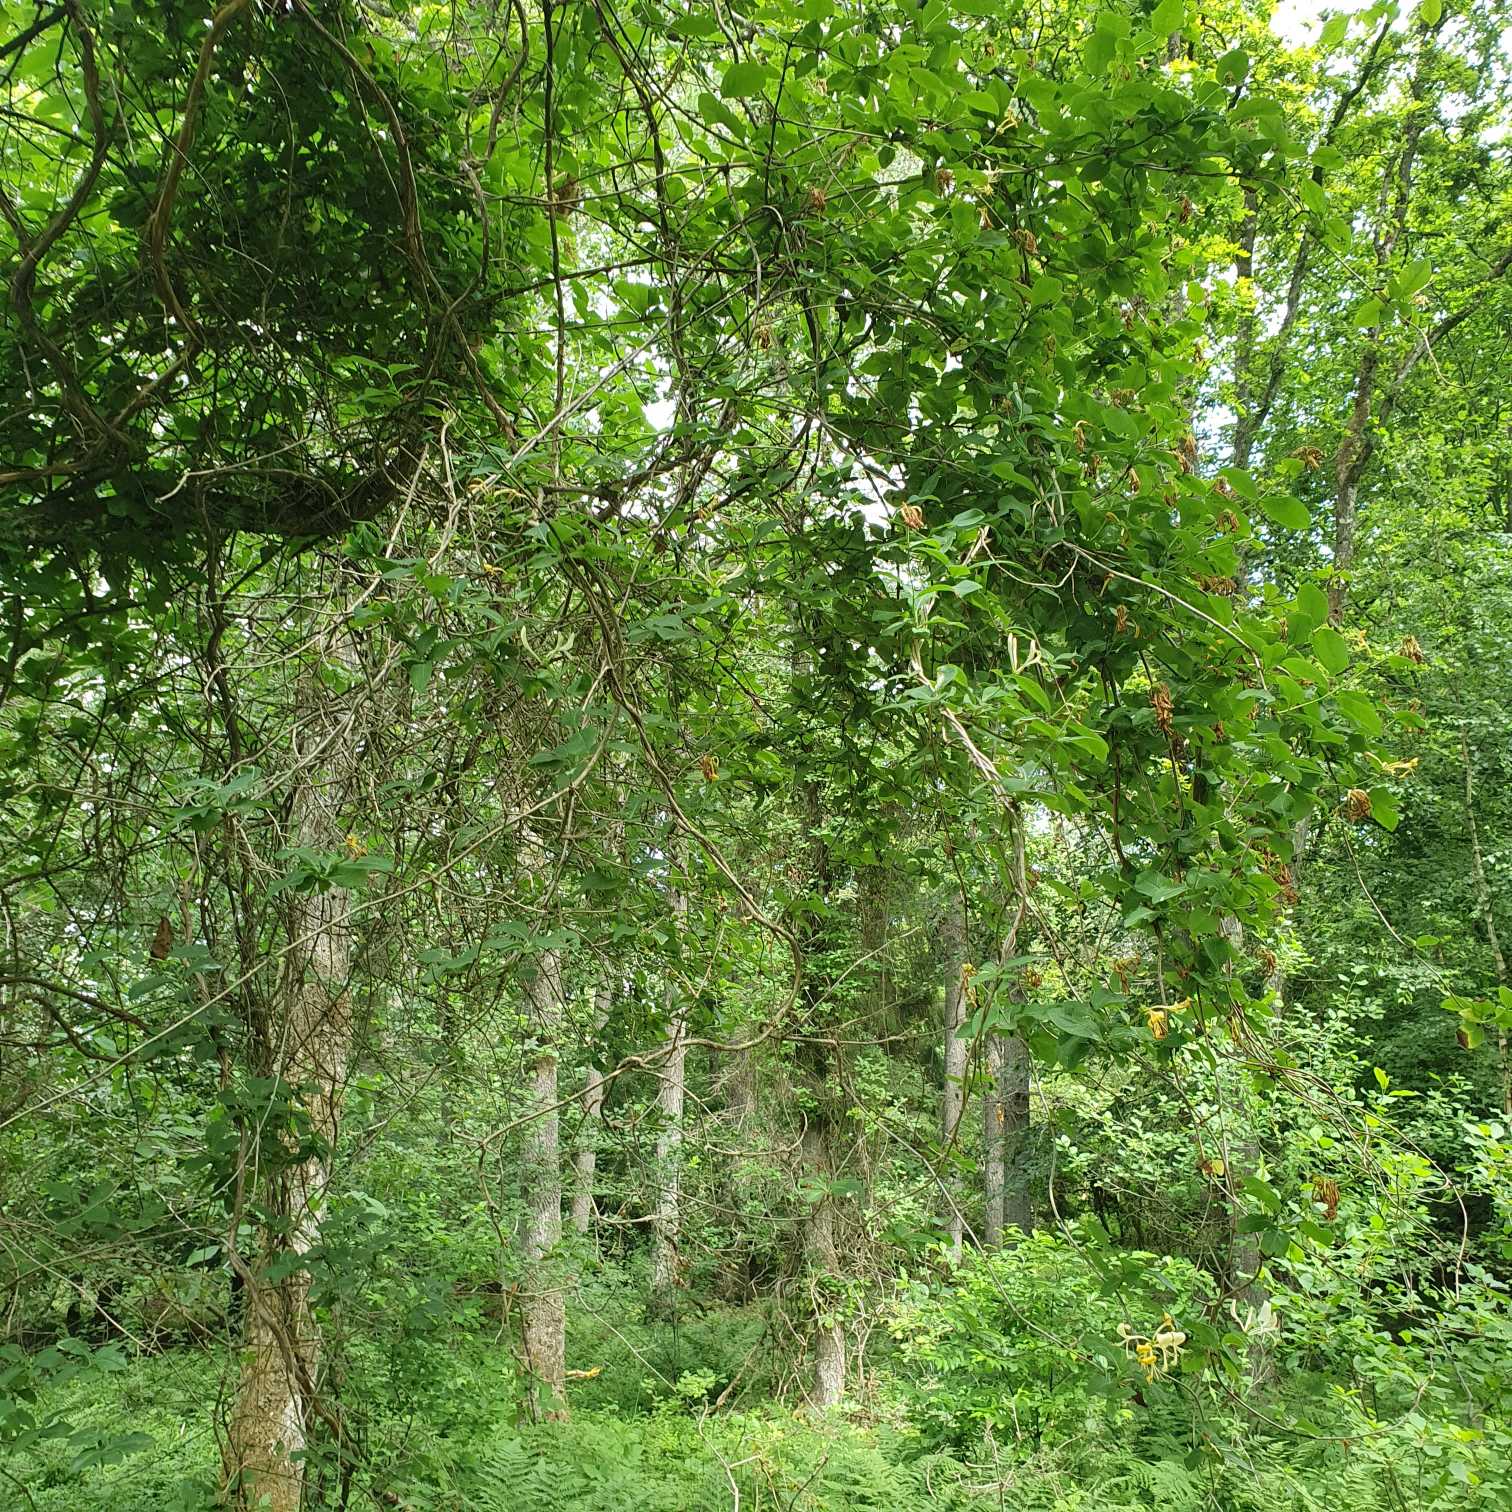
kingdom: Plantae
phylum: Tracheophyta
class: Magnoliopsida
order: Dipsacales
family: Caprifoliaceae
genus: Lonicera
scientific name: Lonicera periclymenum
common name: Almindelig gedeblad
